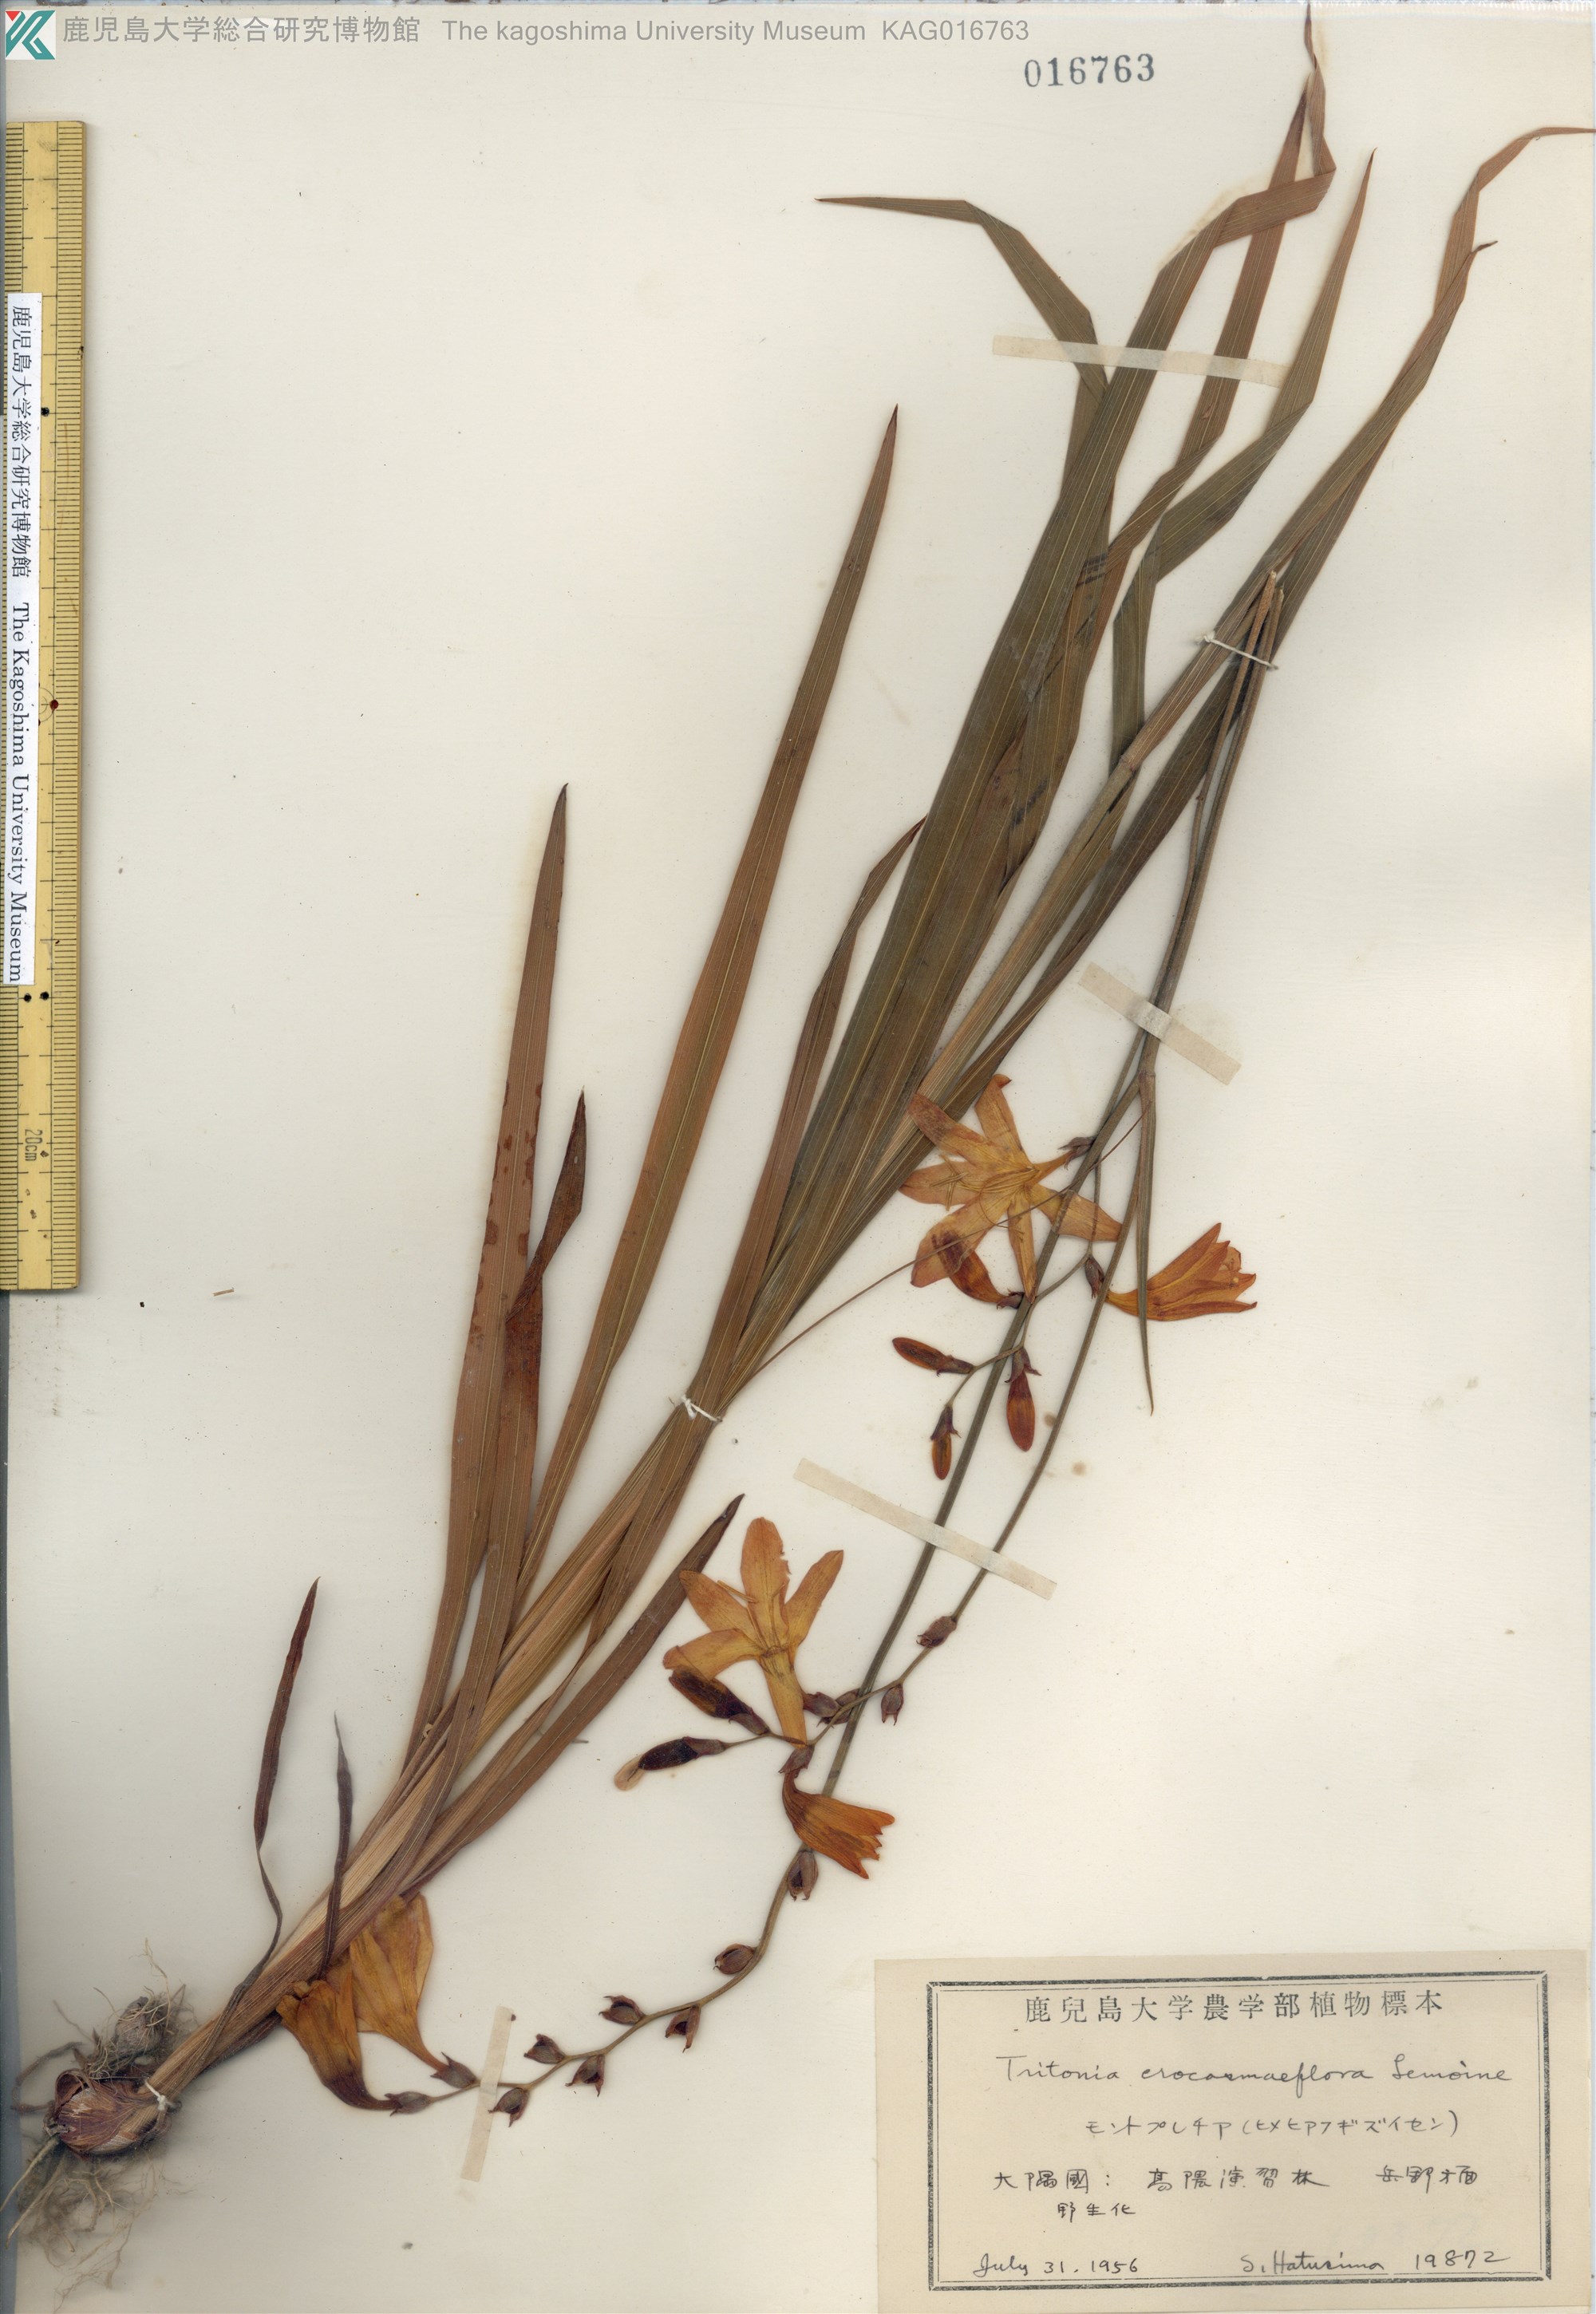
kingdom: Plantae
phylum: Tracheophyta
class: Liliopsida
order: Asparagales
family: Iridaceae
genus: Crocosmia
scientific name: Crocosmia crocosmiiflora
